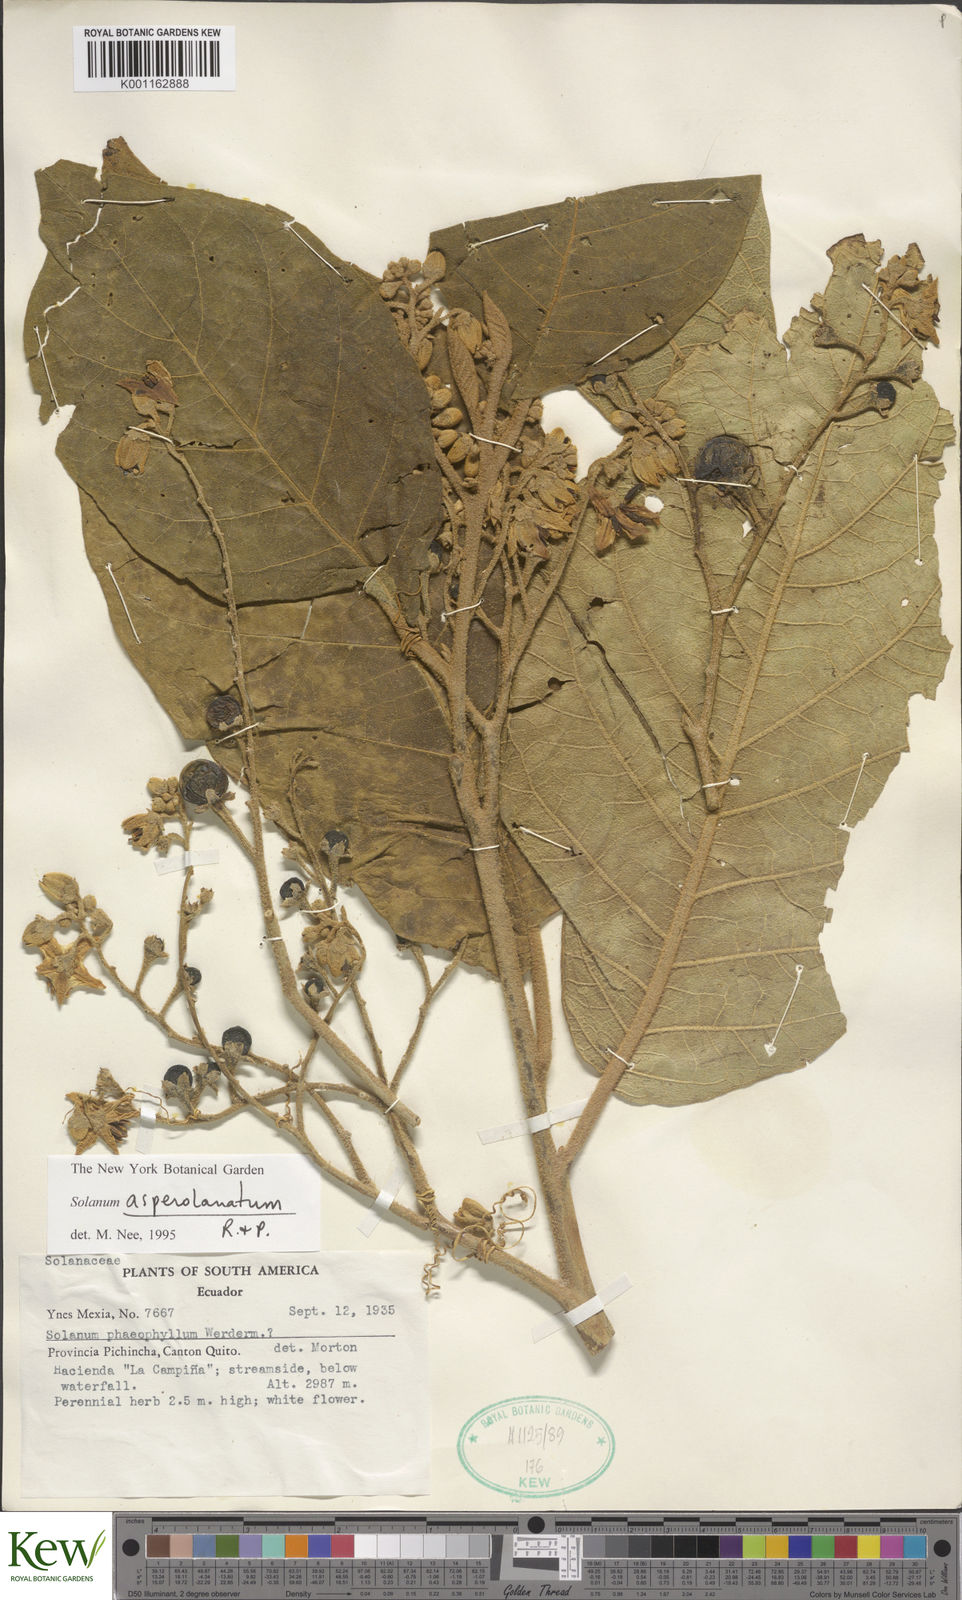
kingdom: Plantae
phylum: Tracheophyta
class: Magnoliopsida
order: Solanales
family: Solanaceae
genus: Solanum
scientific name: Solanum asperolanatum
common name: Devil's-fig
